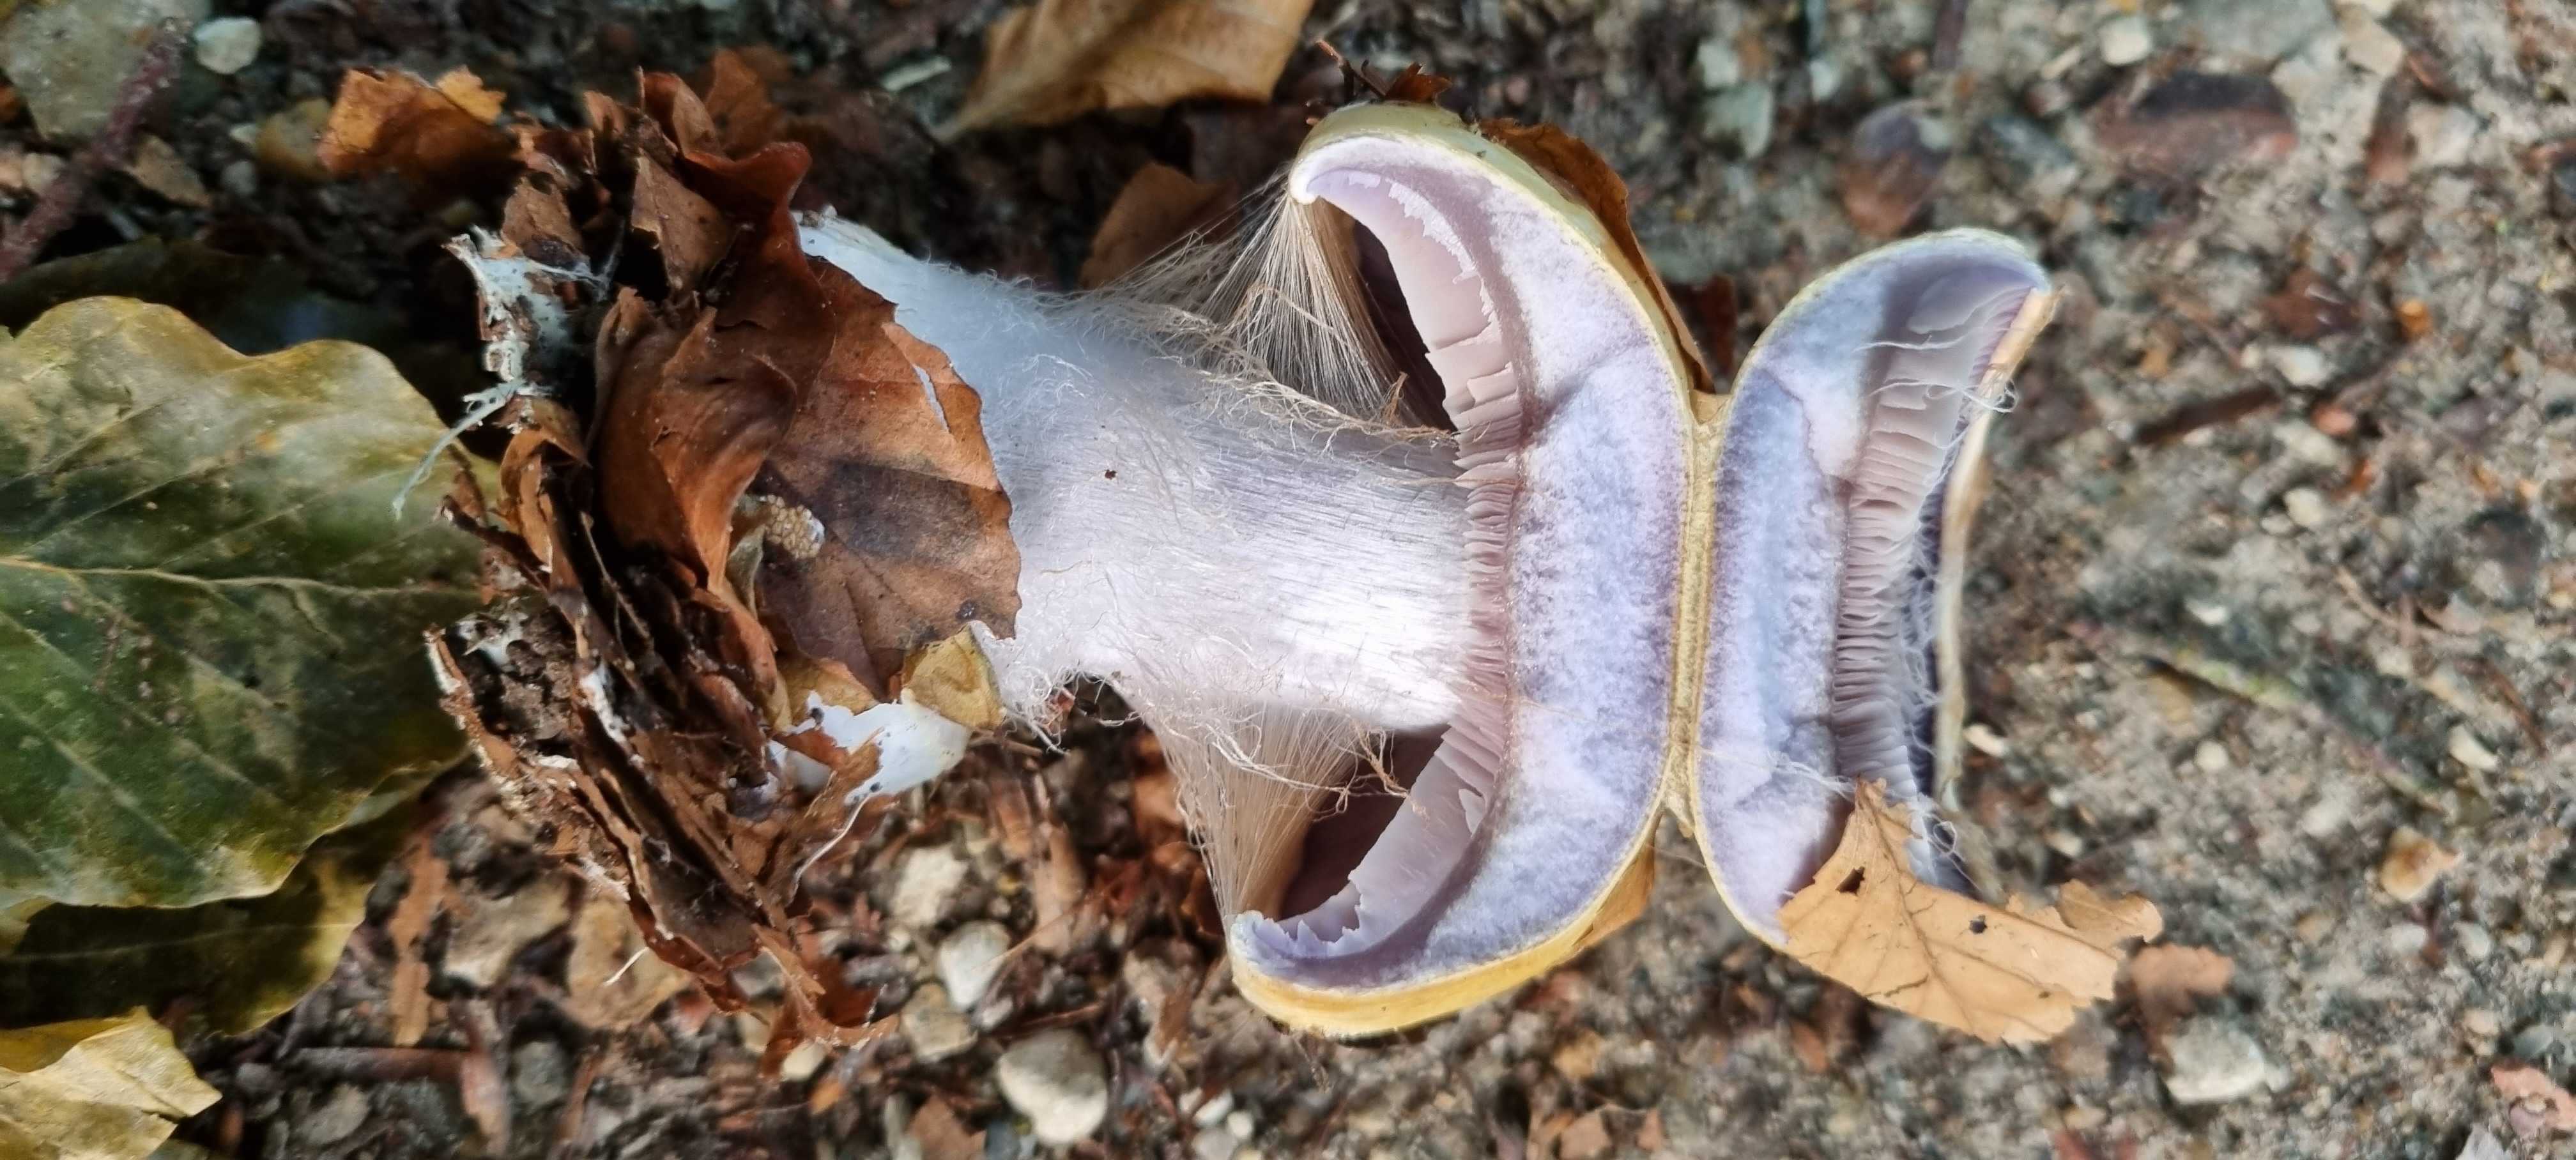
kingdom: Fungi
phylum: Basidiomycota
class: Agaricomycetes
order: Agaricales
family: Cortinariaceae
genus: Cortinarius
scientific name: Cortinarius anserinus
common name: bøge-slørhat
